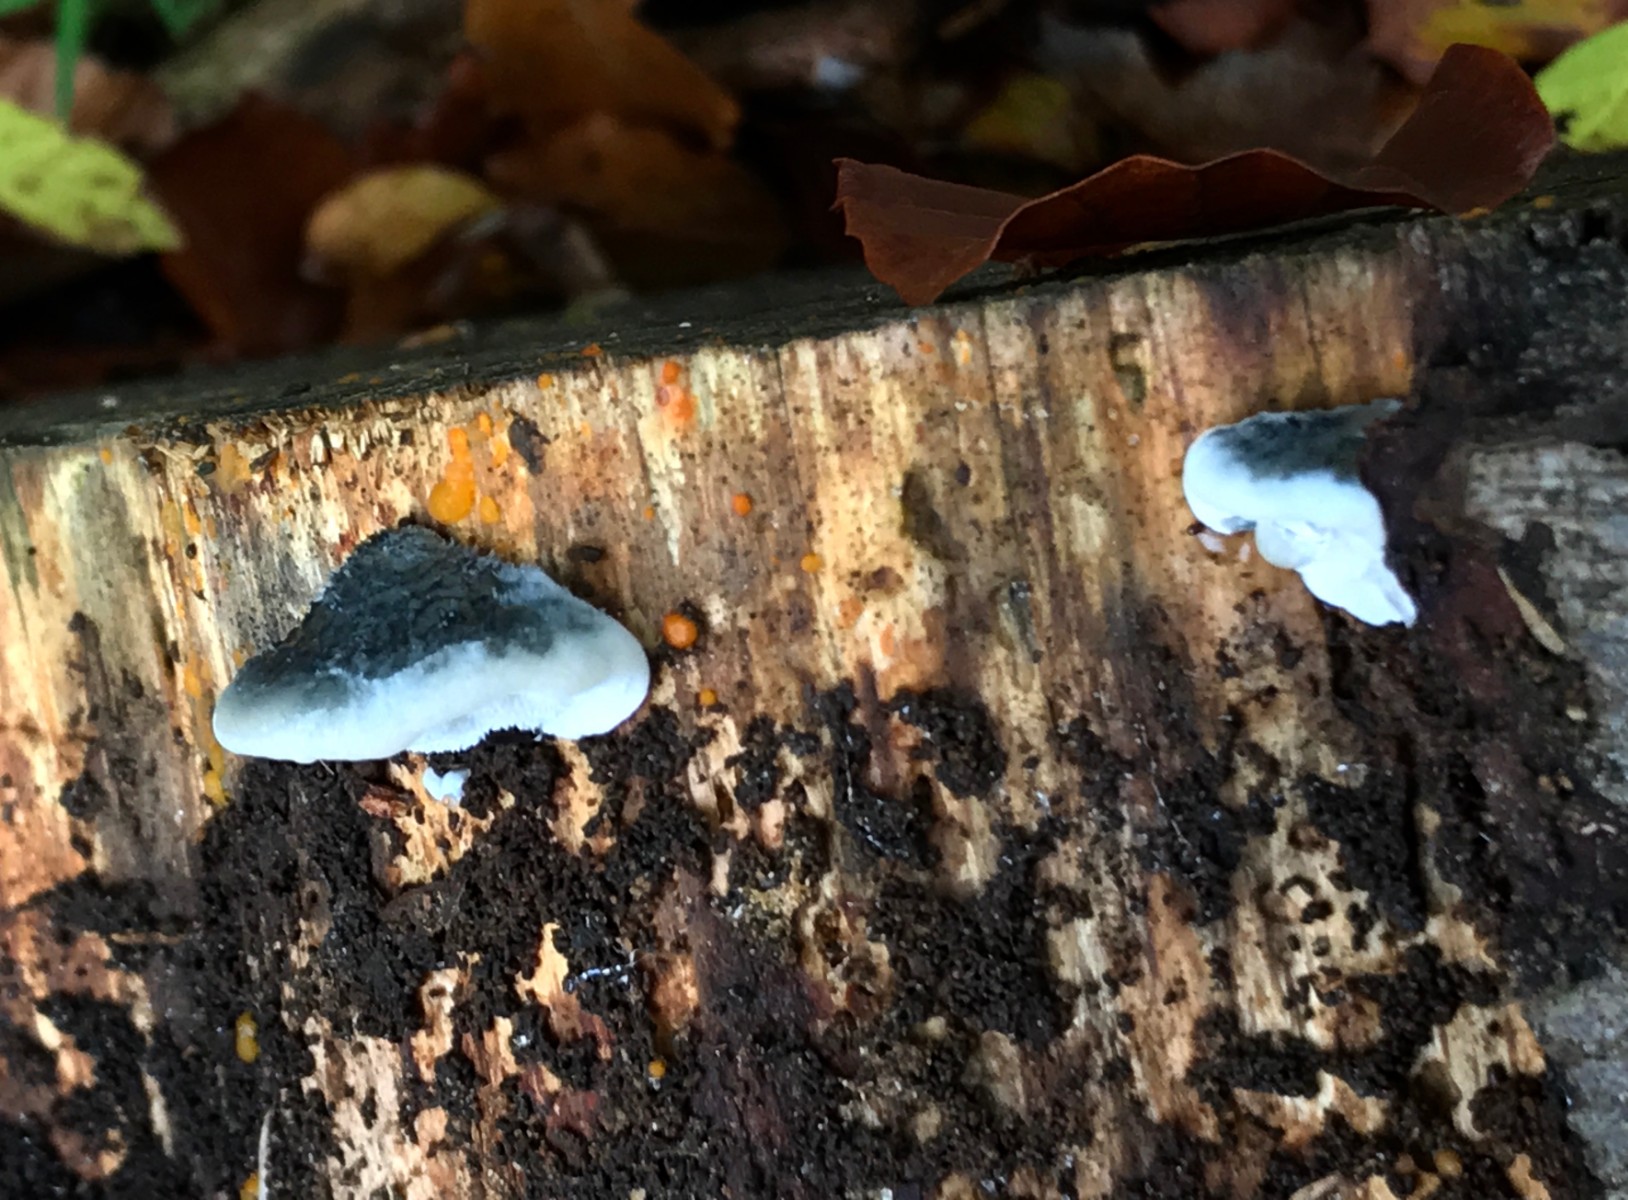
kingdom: Fungi
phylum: Basidiomycota
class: Agaricomycetes
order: Polyporales
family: Polyporaceae
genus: Cyanosporus
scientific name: Cyanosporus caesius
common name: blålig kødporesvamp
